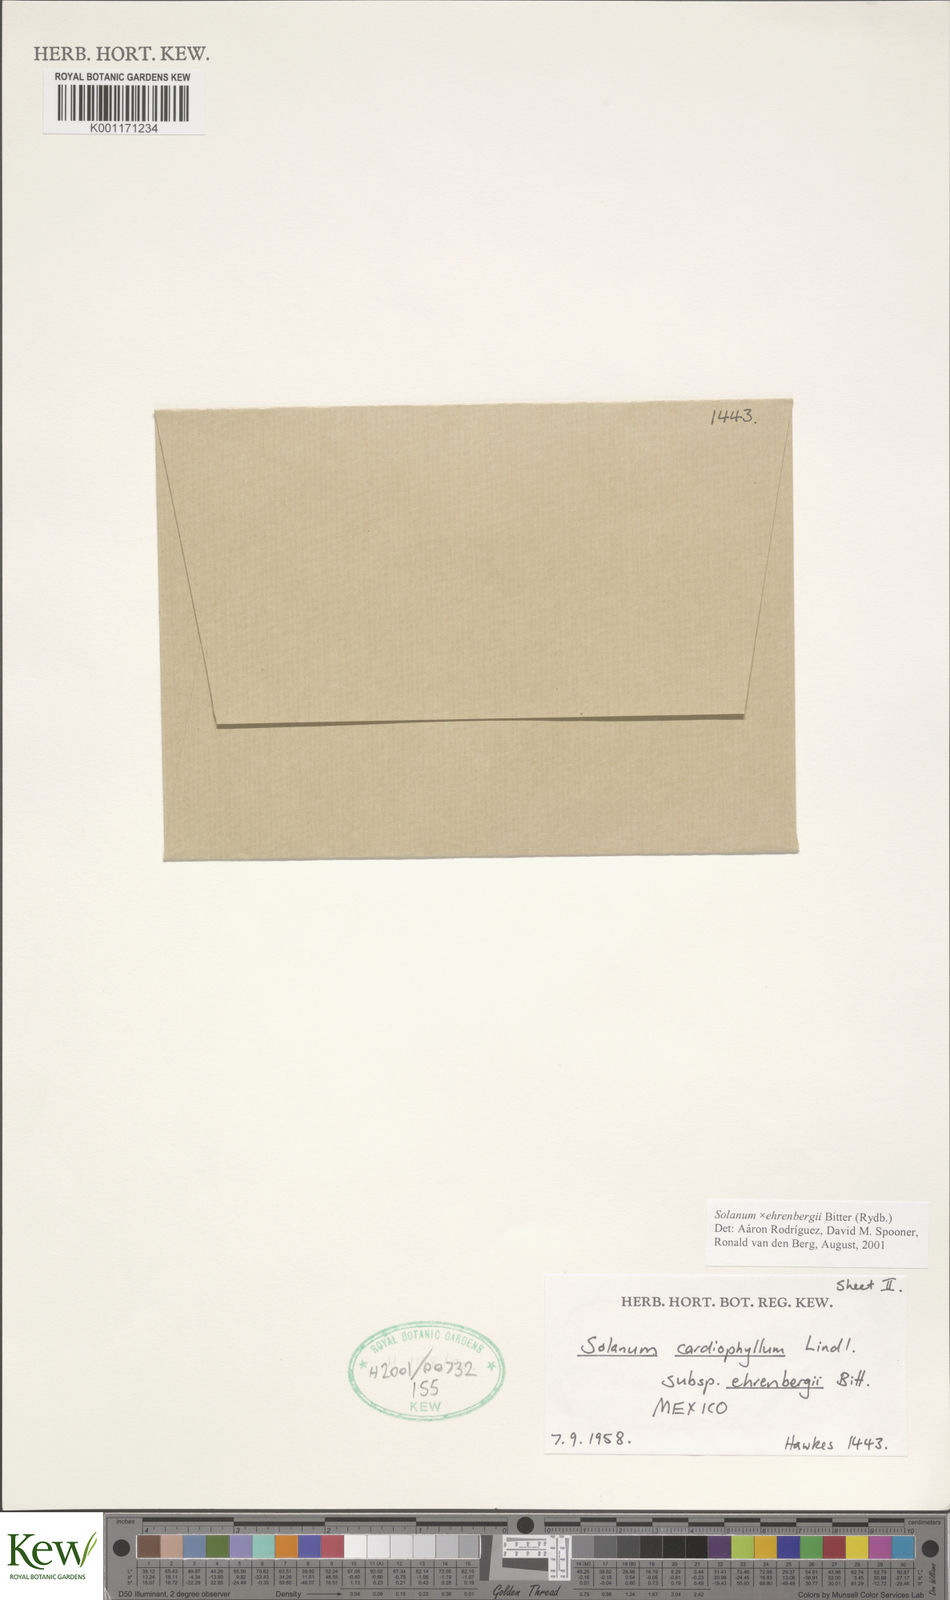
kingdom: Plantae
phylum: Tracheophyta
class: Magnoliopsida
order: Solanales
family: Solanaceae
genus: Solanum
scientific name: Solanum edinense
